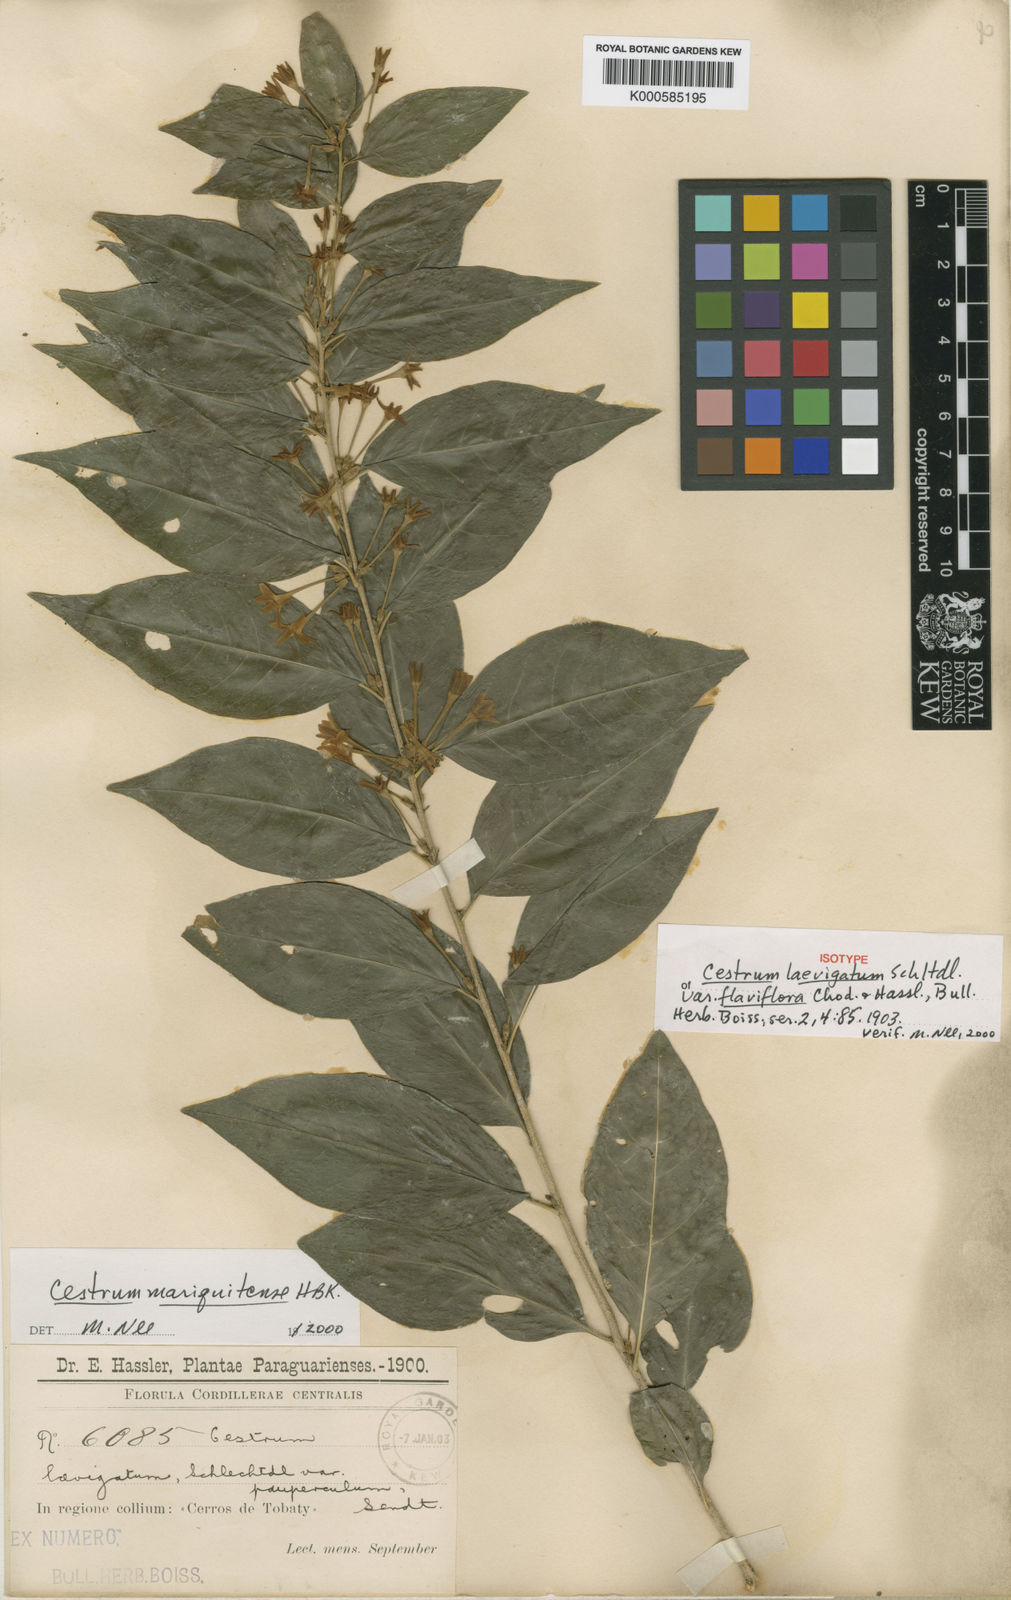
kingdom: Plantae
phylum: Tracheophyta
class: Magnoliopsida
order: Solanales
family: Solanaceae
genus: Cestrum
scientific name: Cestrum mariquitense
